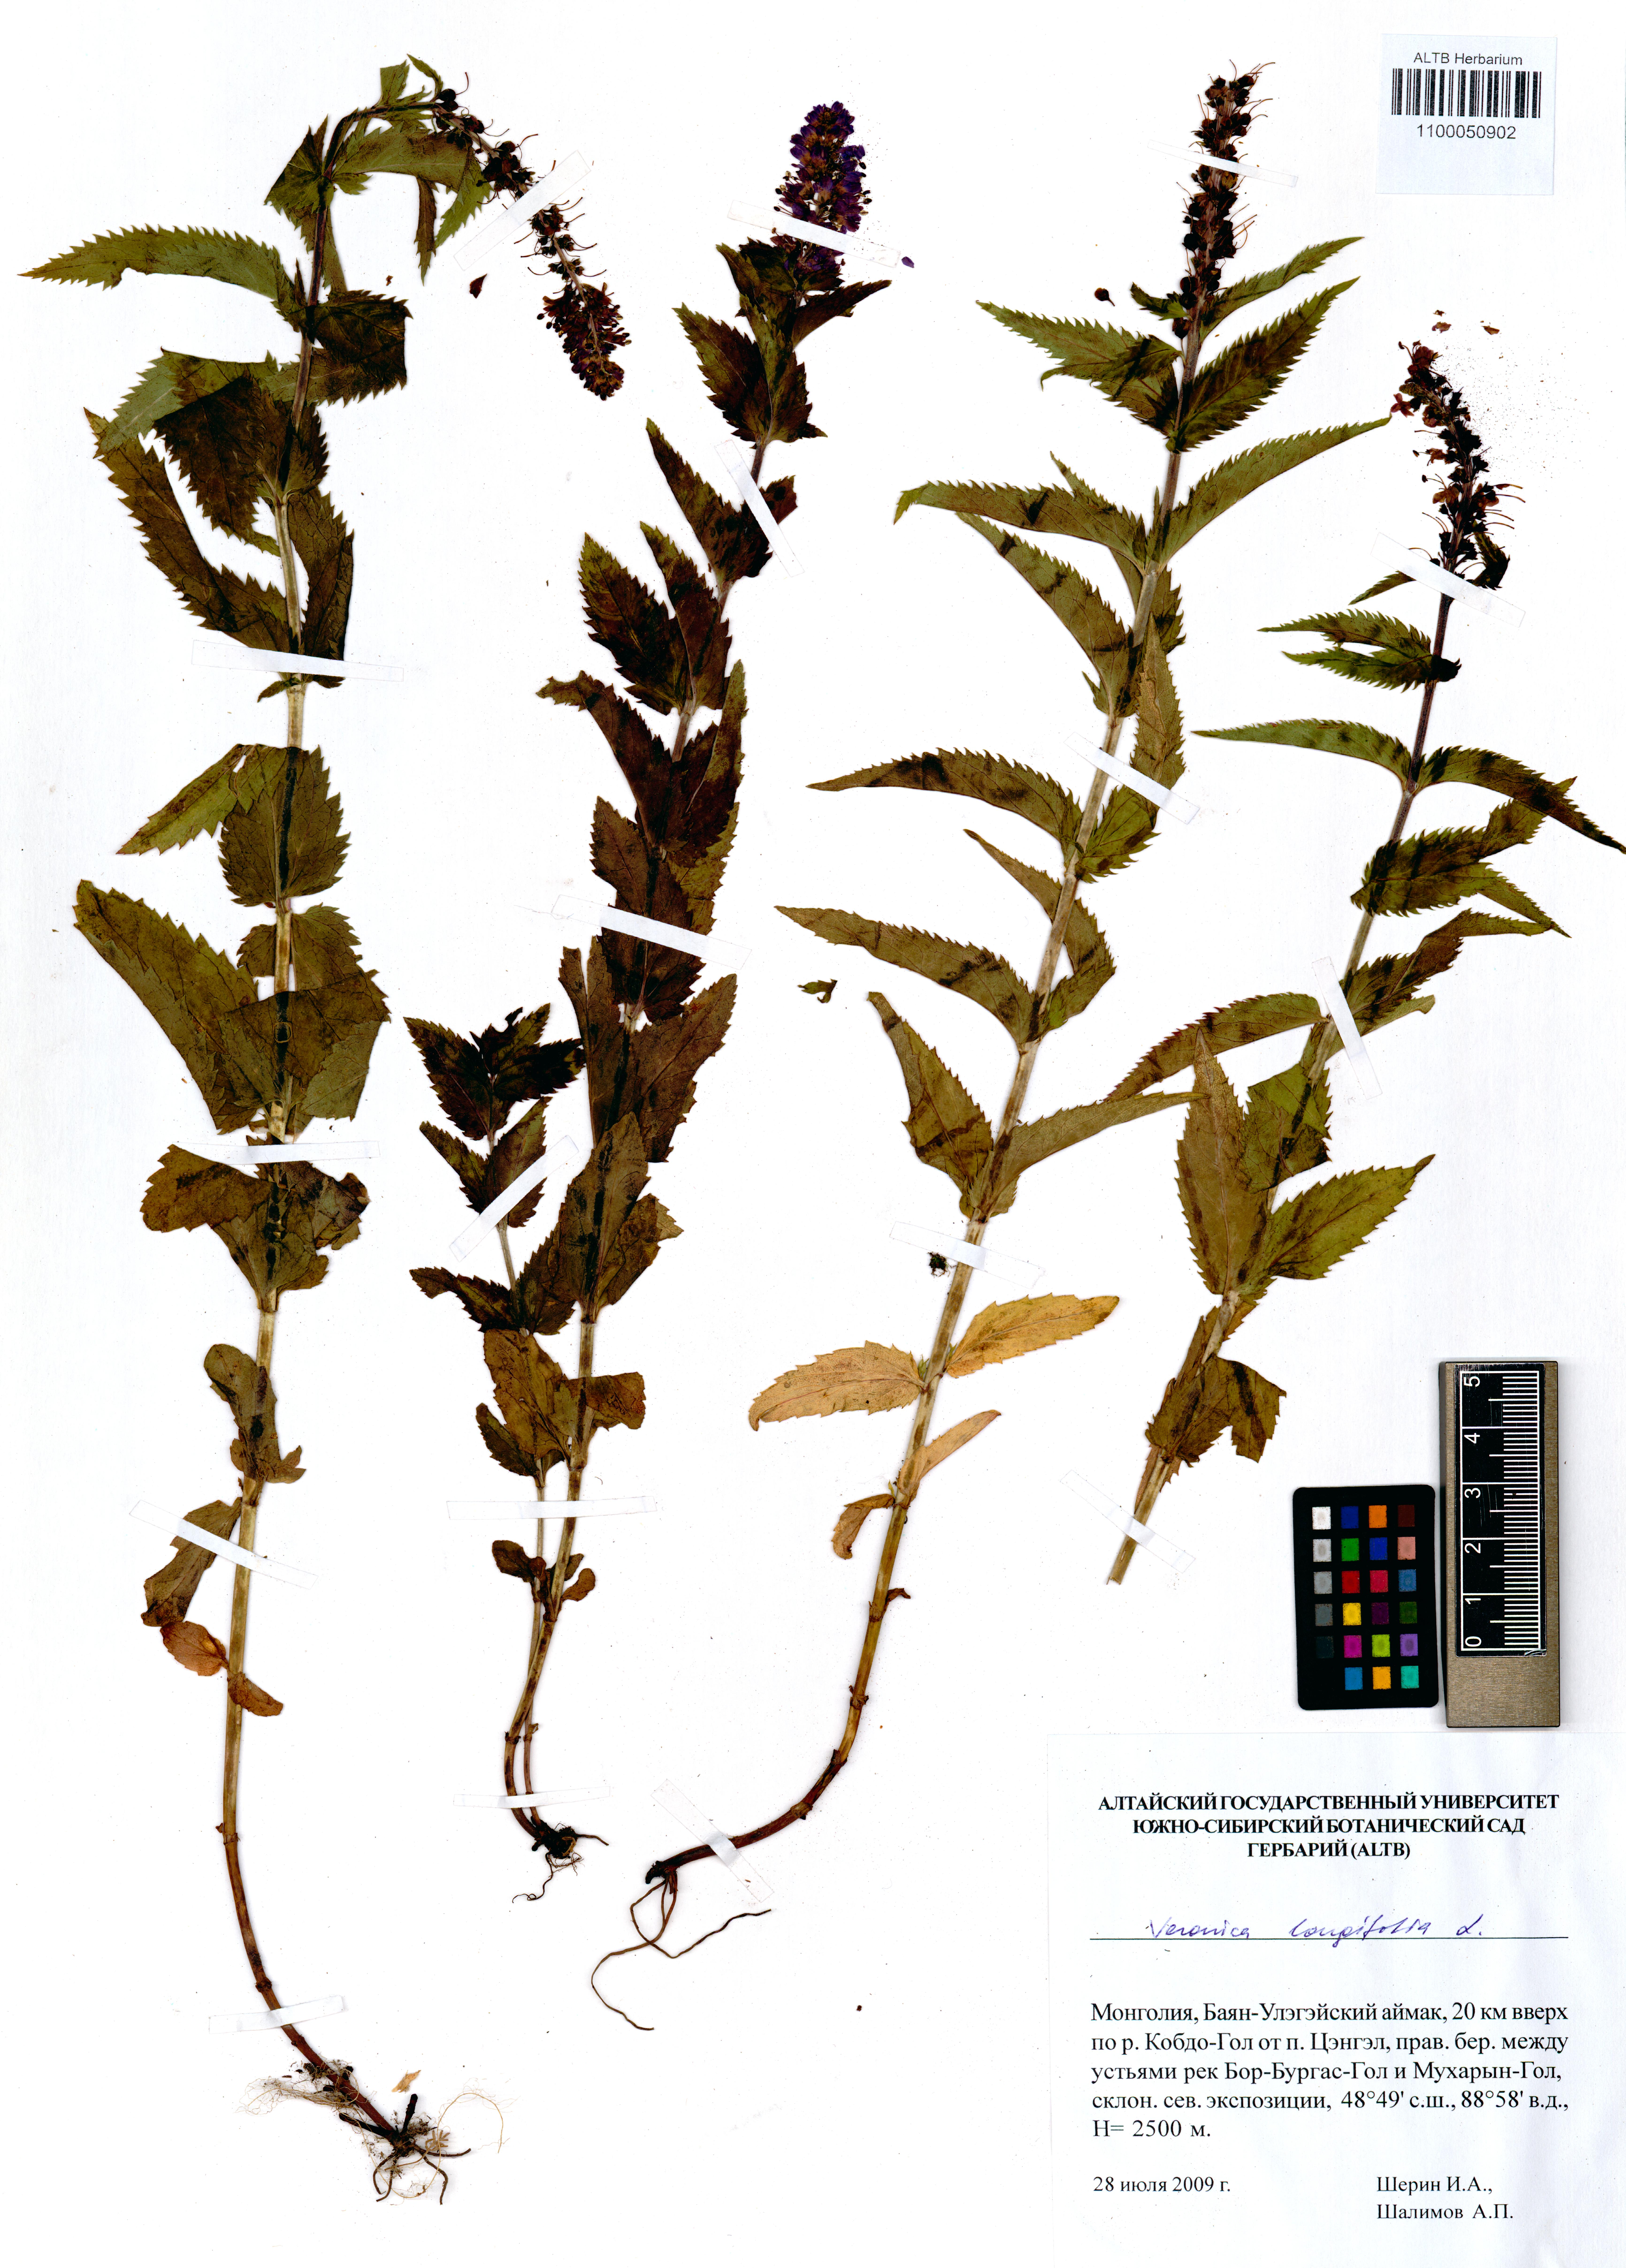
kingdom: Plantae
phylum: Tracheophyta
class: Magnoliopsida
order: Lamiales
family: Plantaginaceae
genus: Veronica
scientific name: Veronica longifolia
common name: Garden speedwell
